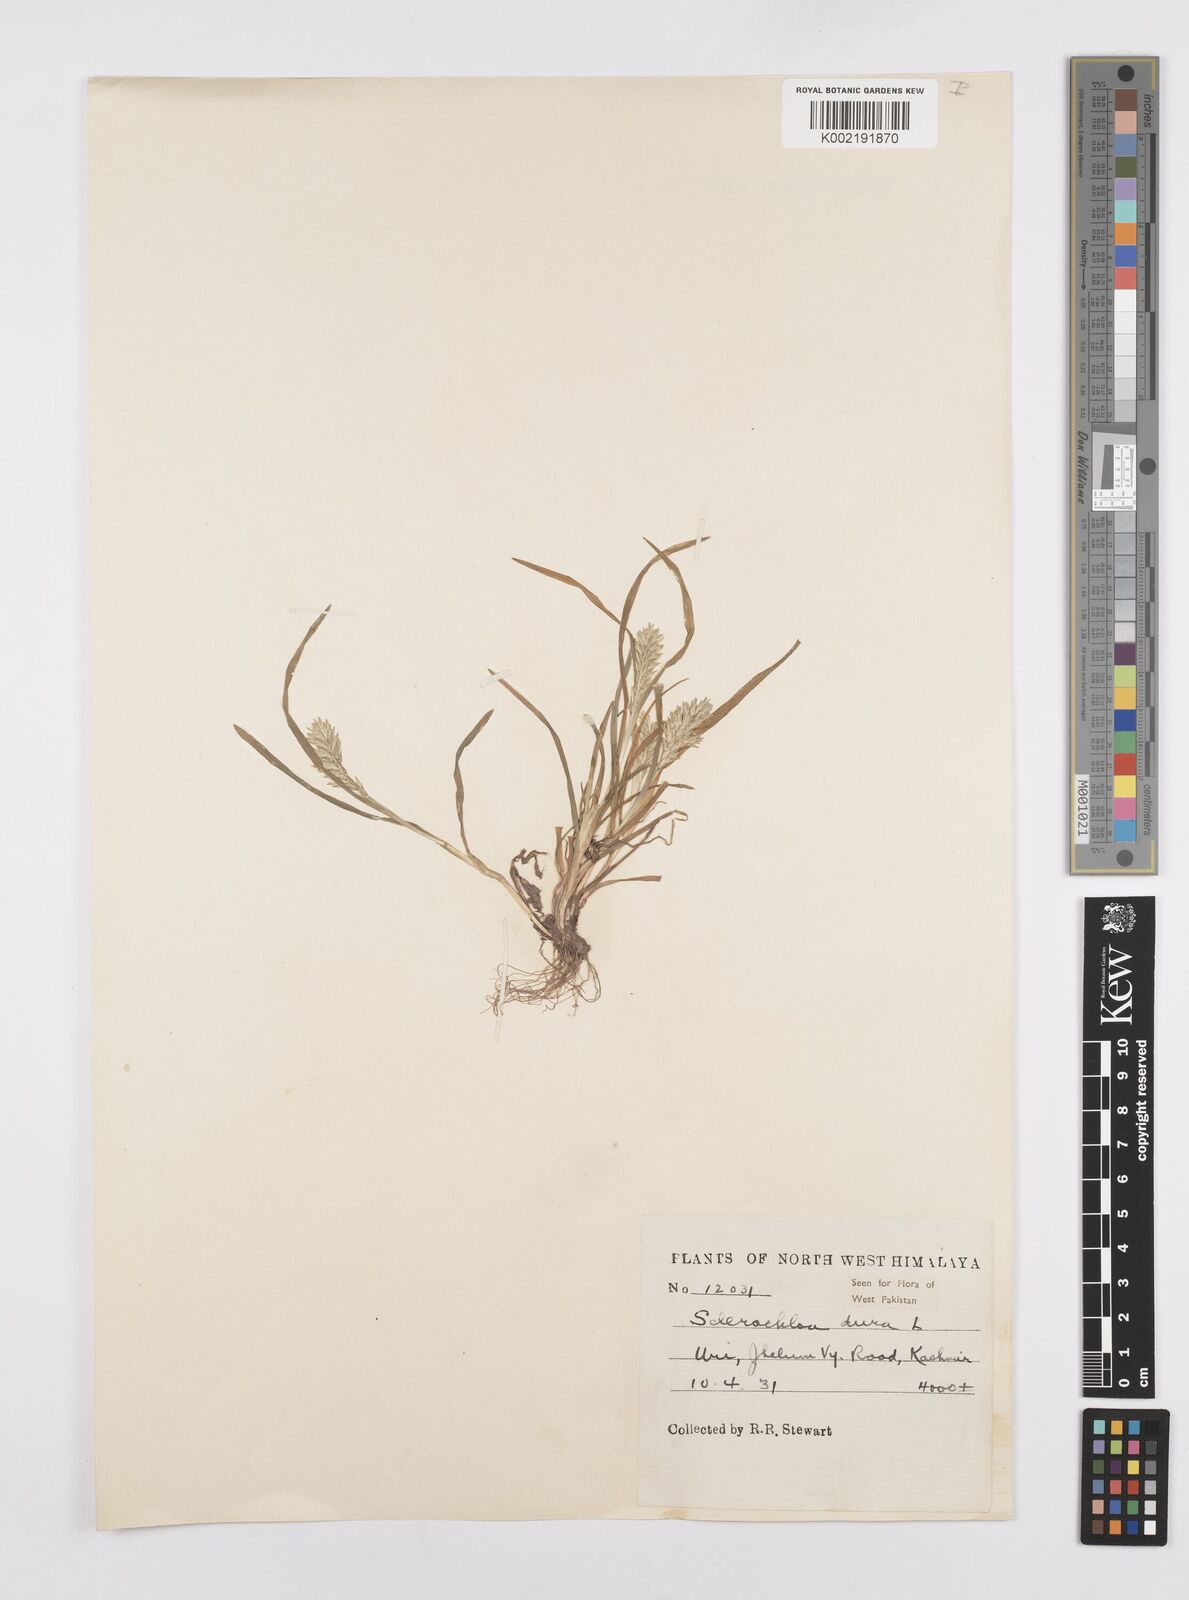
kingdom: Plantae
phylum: Tracheophyta
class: Liliopsida
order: Poales
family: Poaceae
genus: Sclerochloa
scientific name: Sclerochloa dura
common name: Common hardgrass
